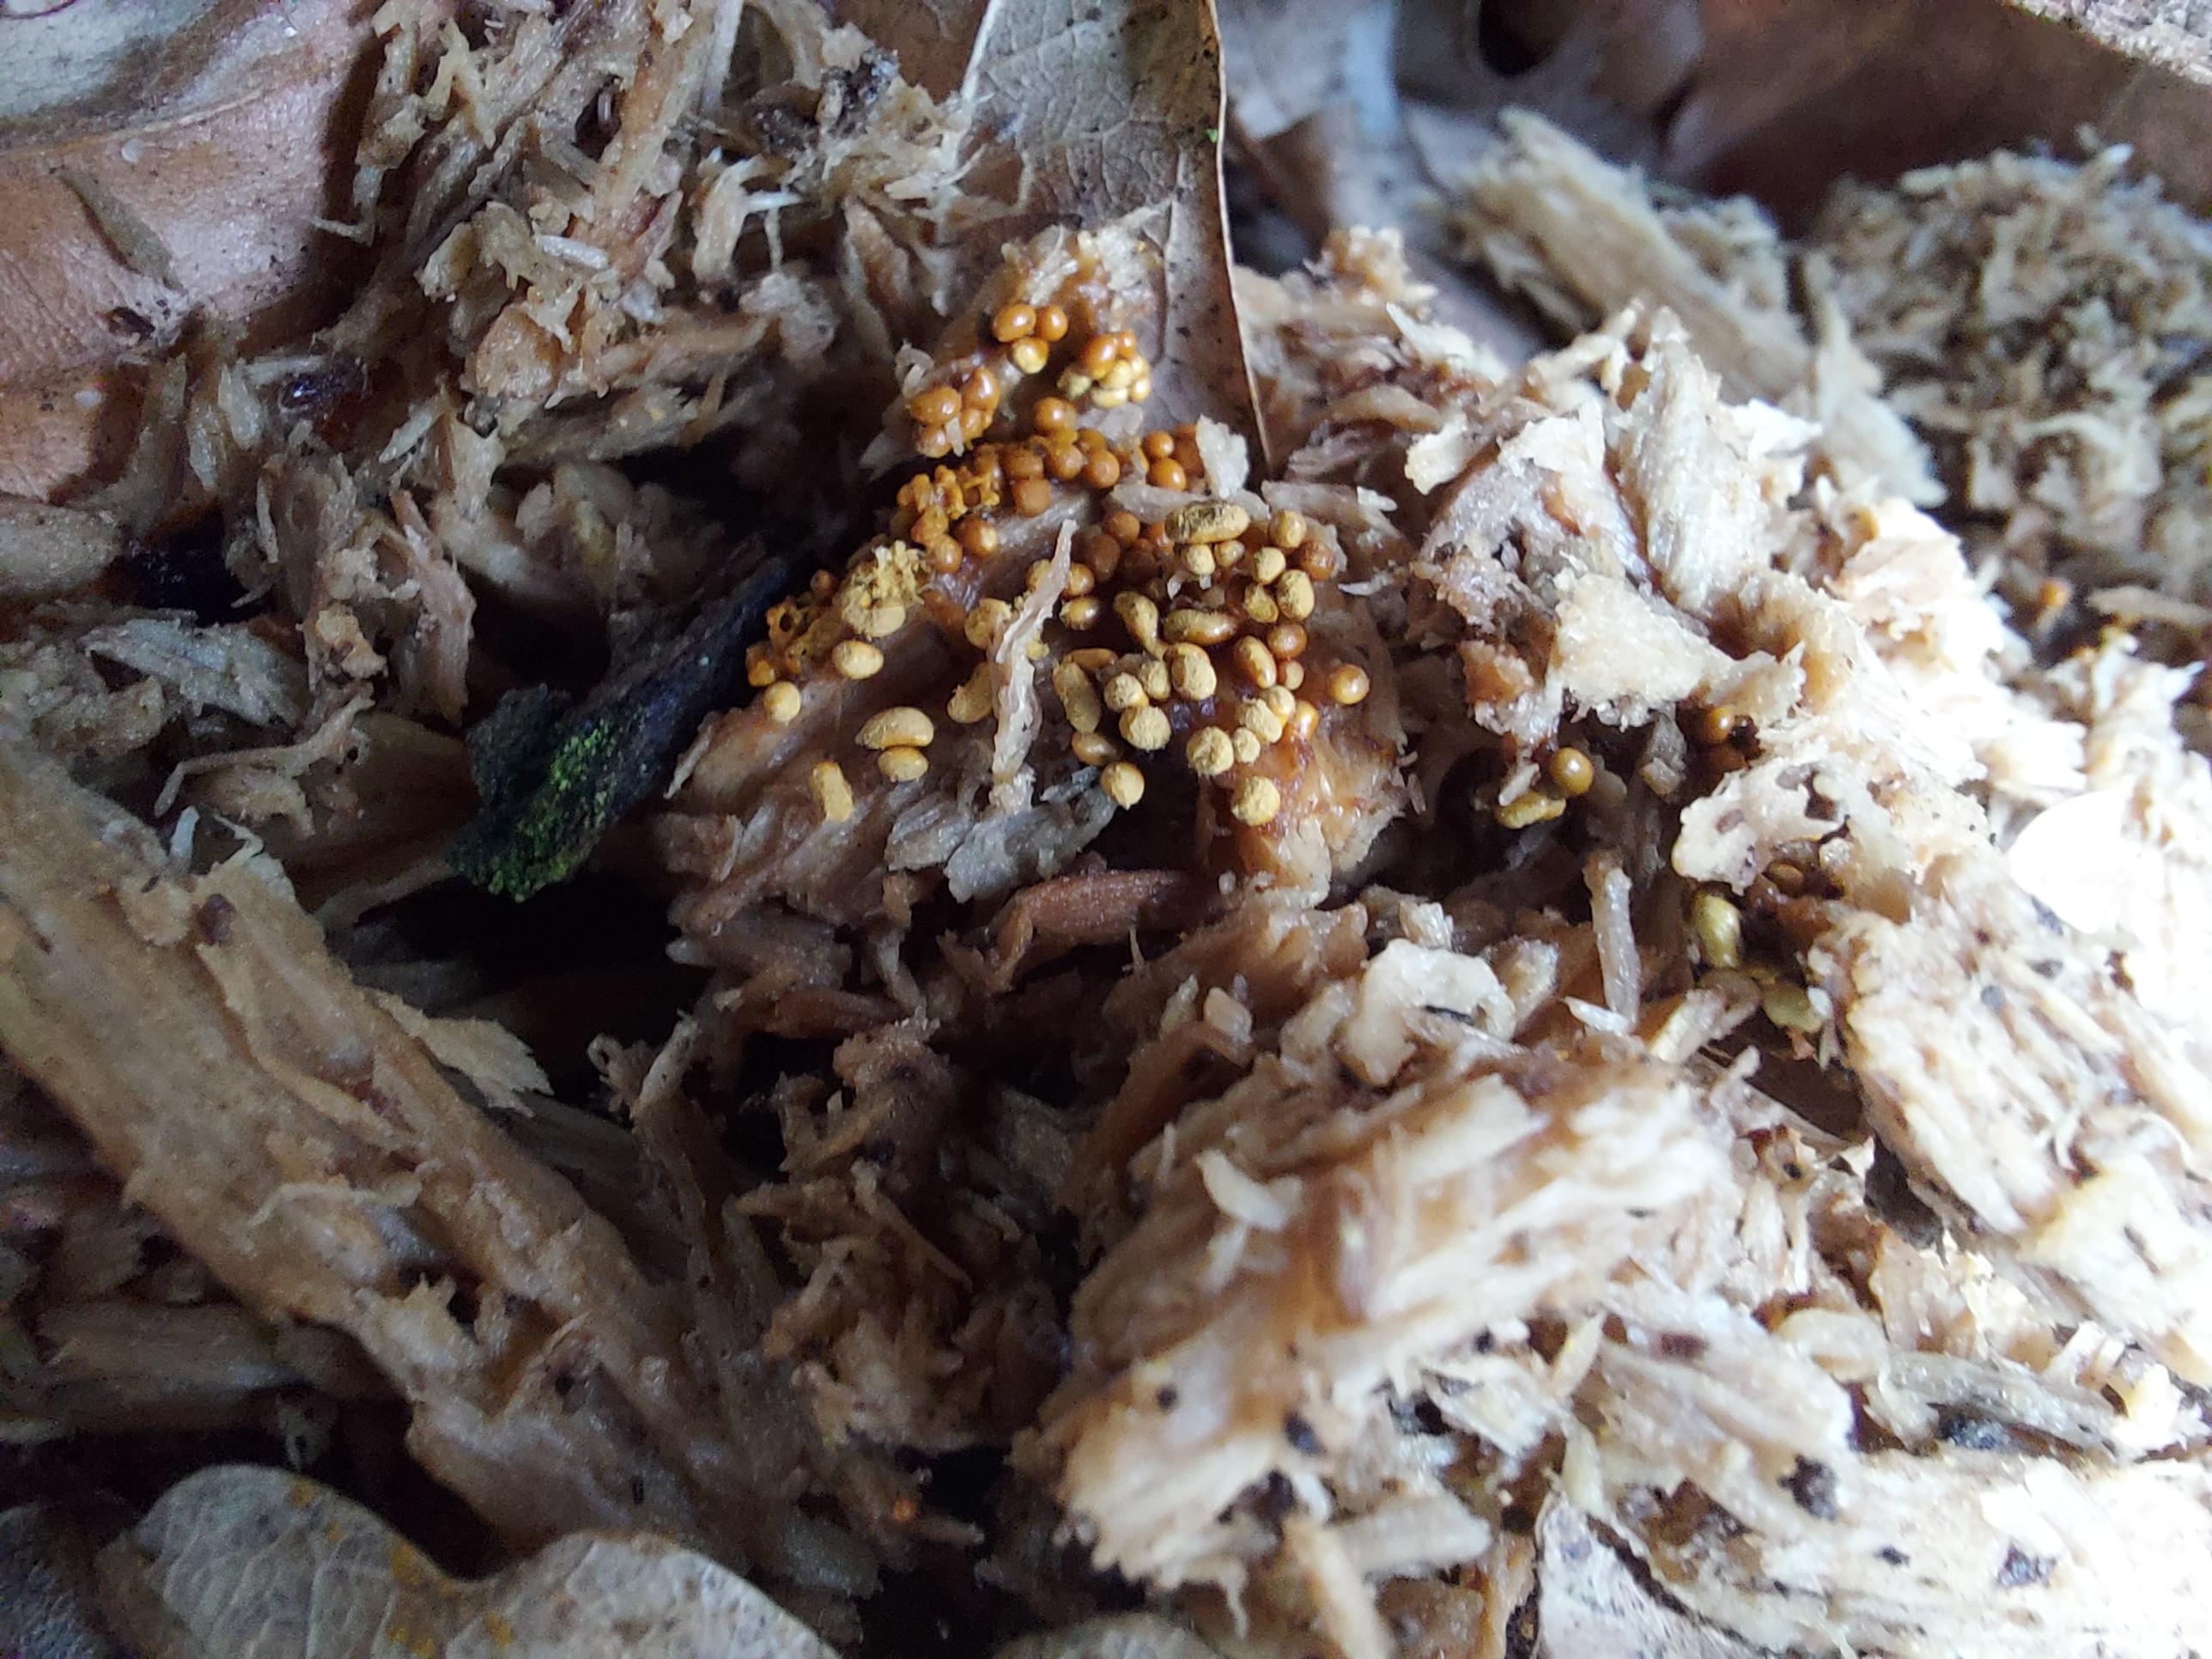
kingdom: Protozoa
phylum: Mycetozoa
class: Myxomycetes
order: Trichiales
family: Trichiaceae
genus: Trichia
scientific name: Trichia varia
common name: foranderlig hårbold
